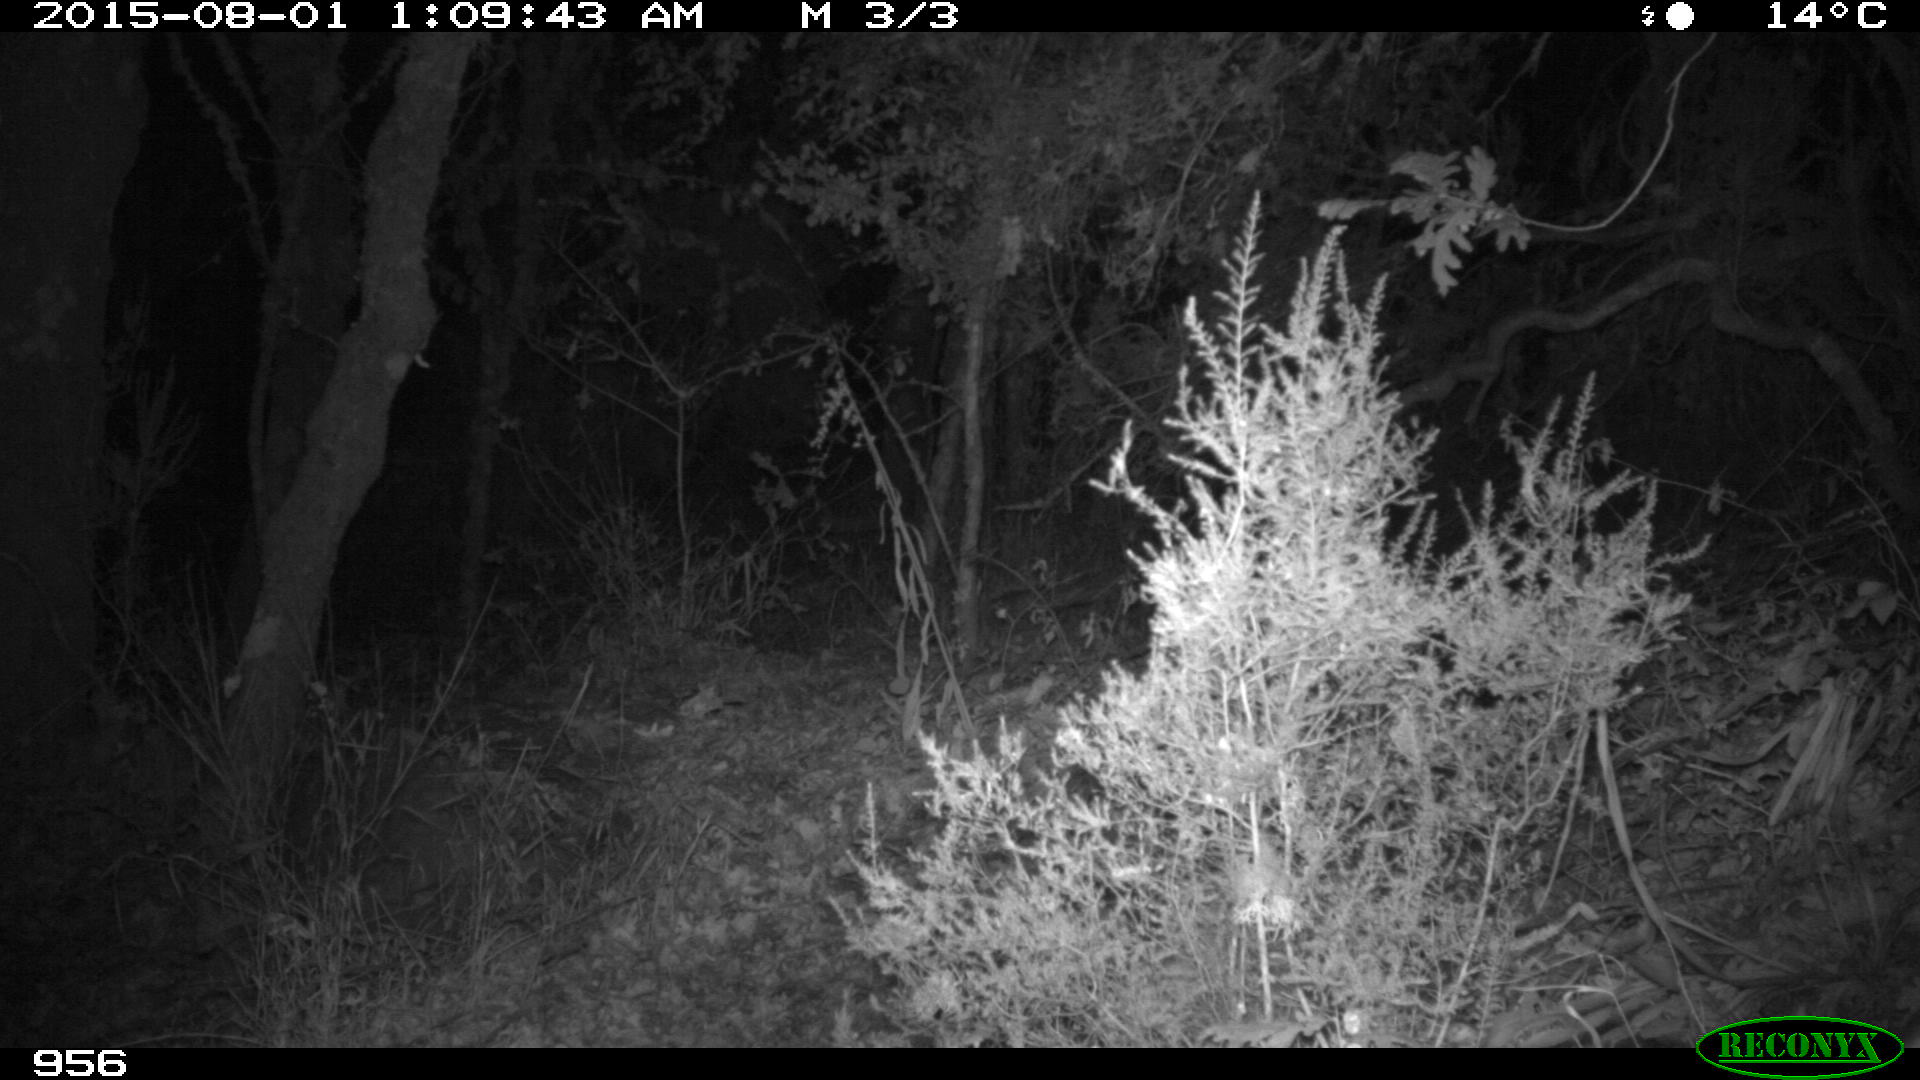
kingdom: Animalia
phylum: Chordata
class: Mammalia
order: Artiodactyla
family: Cervidae
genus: Capreolus
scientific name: Capreolus capreolus
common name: Western roe deer
